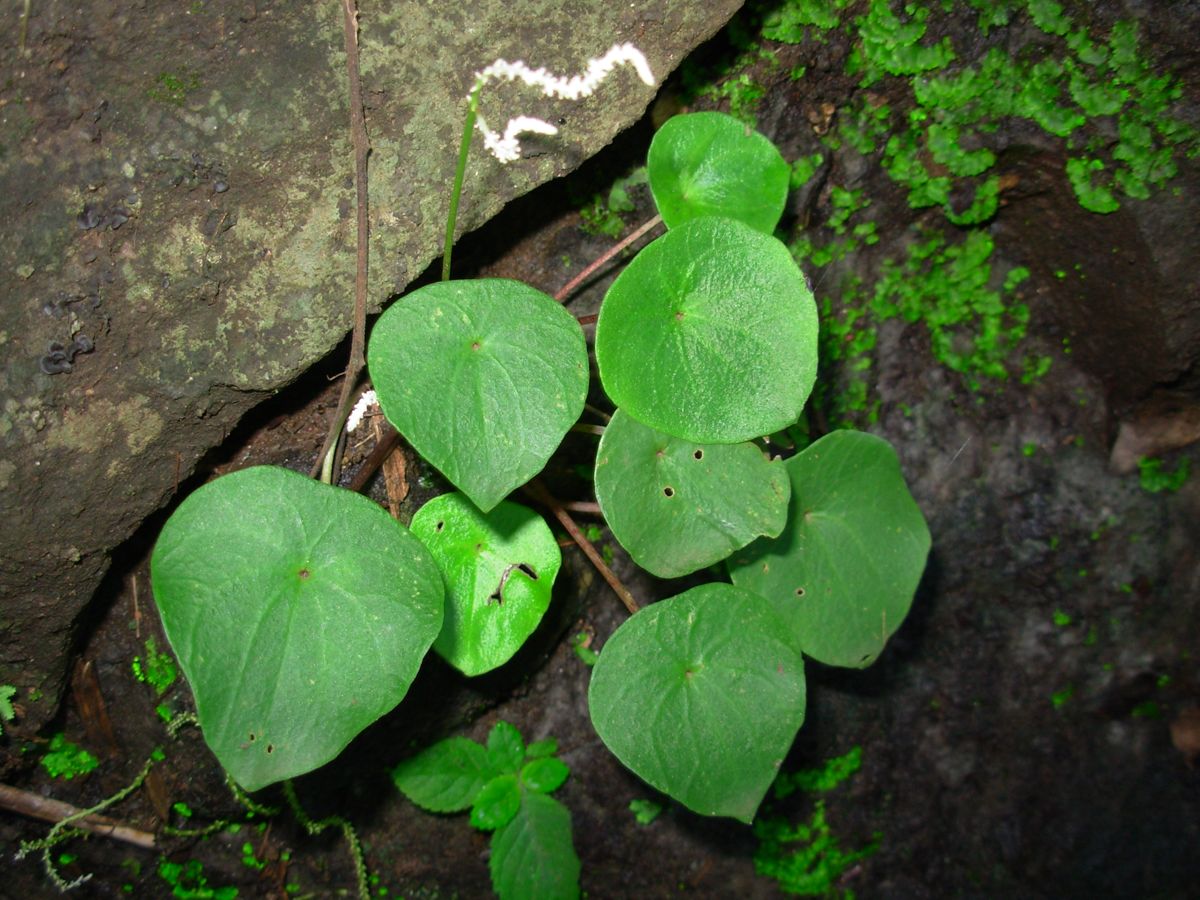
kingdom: Plantae
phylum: Tracheophyta
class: Magnoliopsida
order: Piperales
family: Piperaceae
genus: Peperomia
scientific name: Peperomia claytonioides
